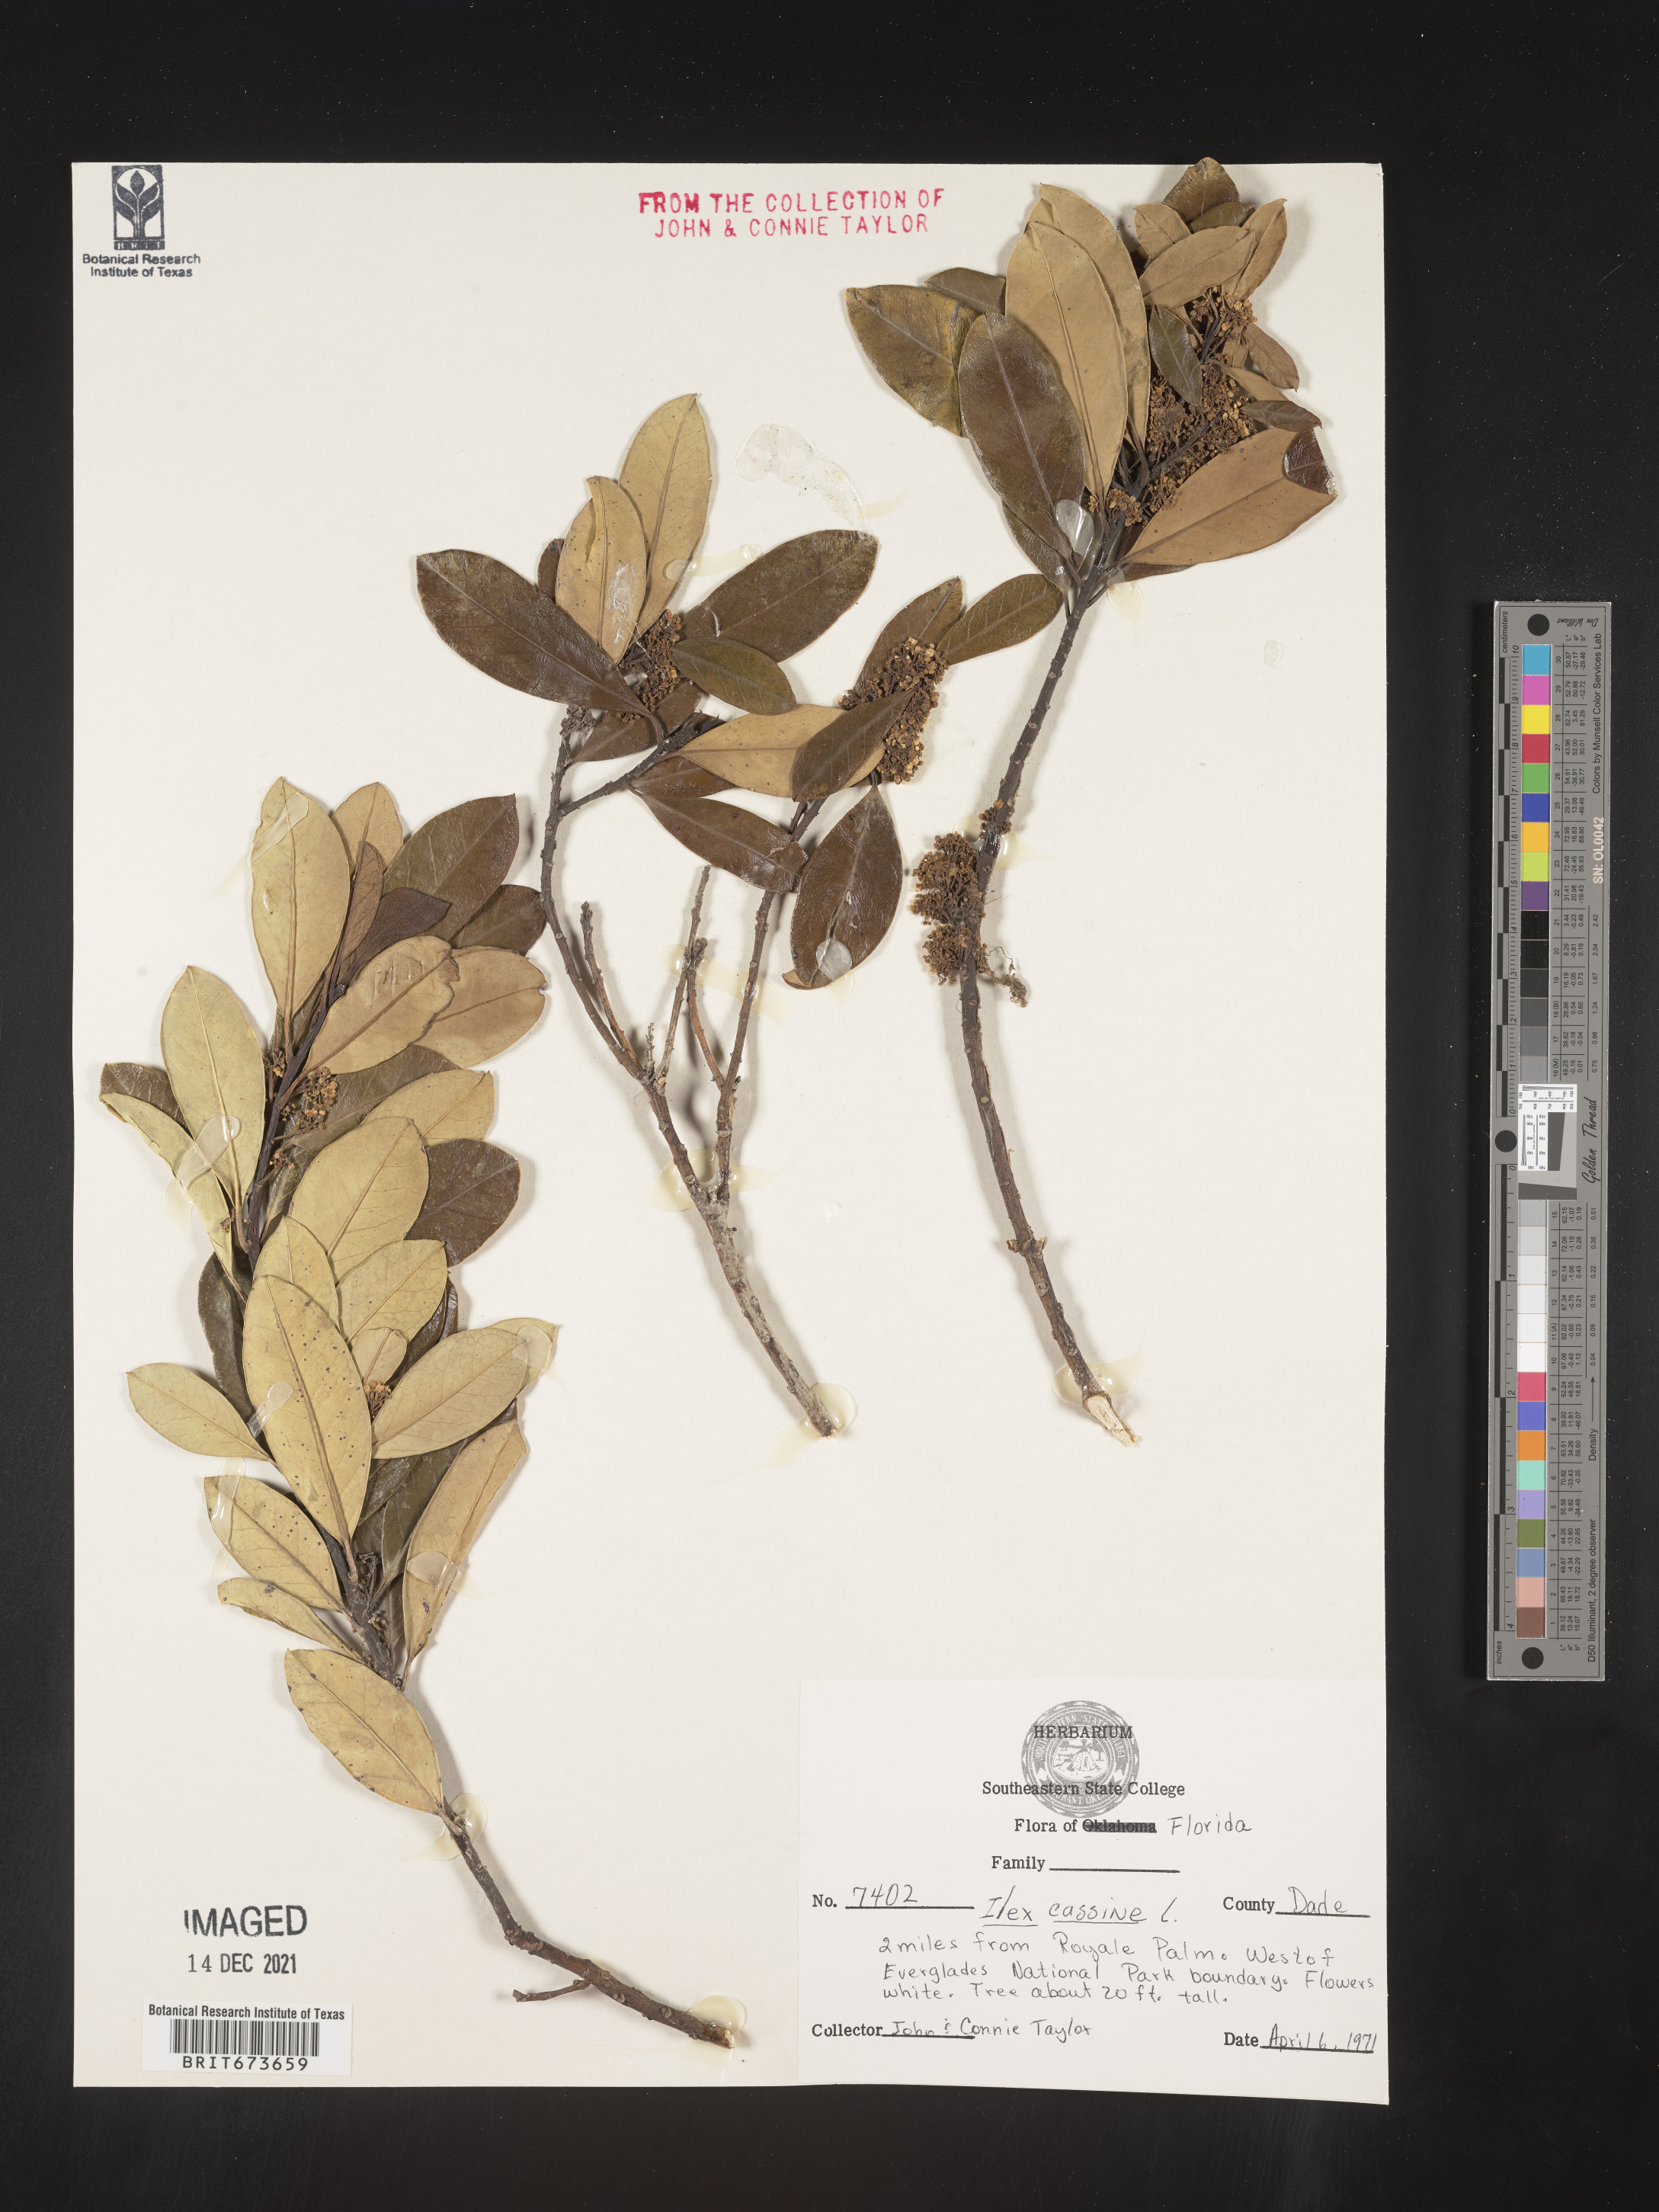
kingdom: Plantae
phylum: Tracheophyta
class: Magnoliopsida
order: Aquifoliales
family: Aquifoliaceae
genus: Ilex
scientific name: Ilex cassine
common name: Dahoon
